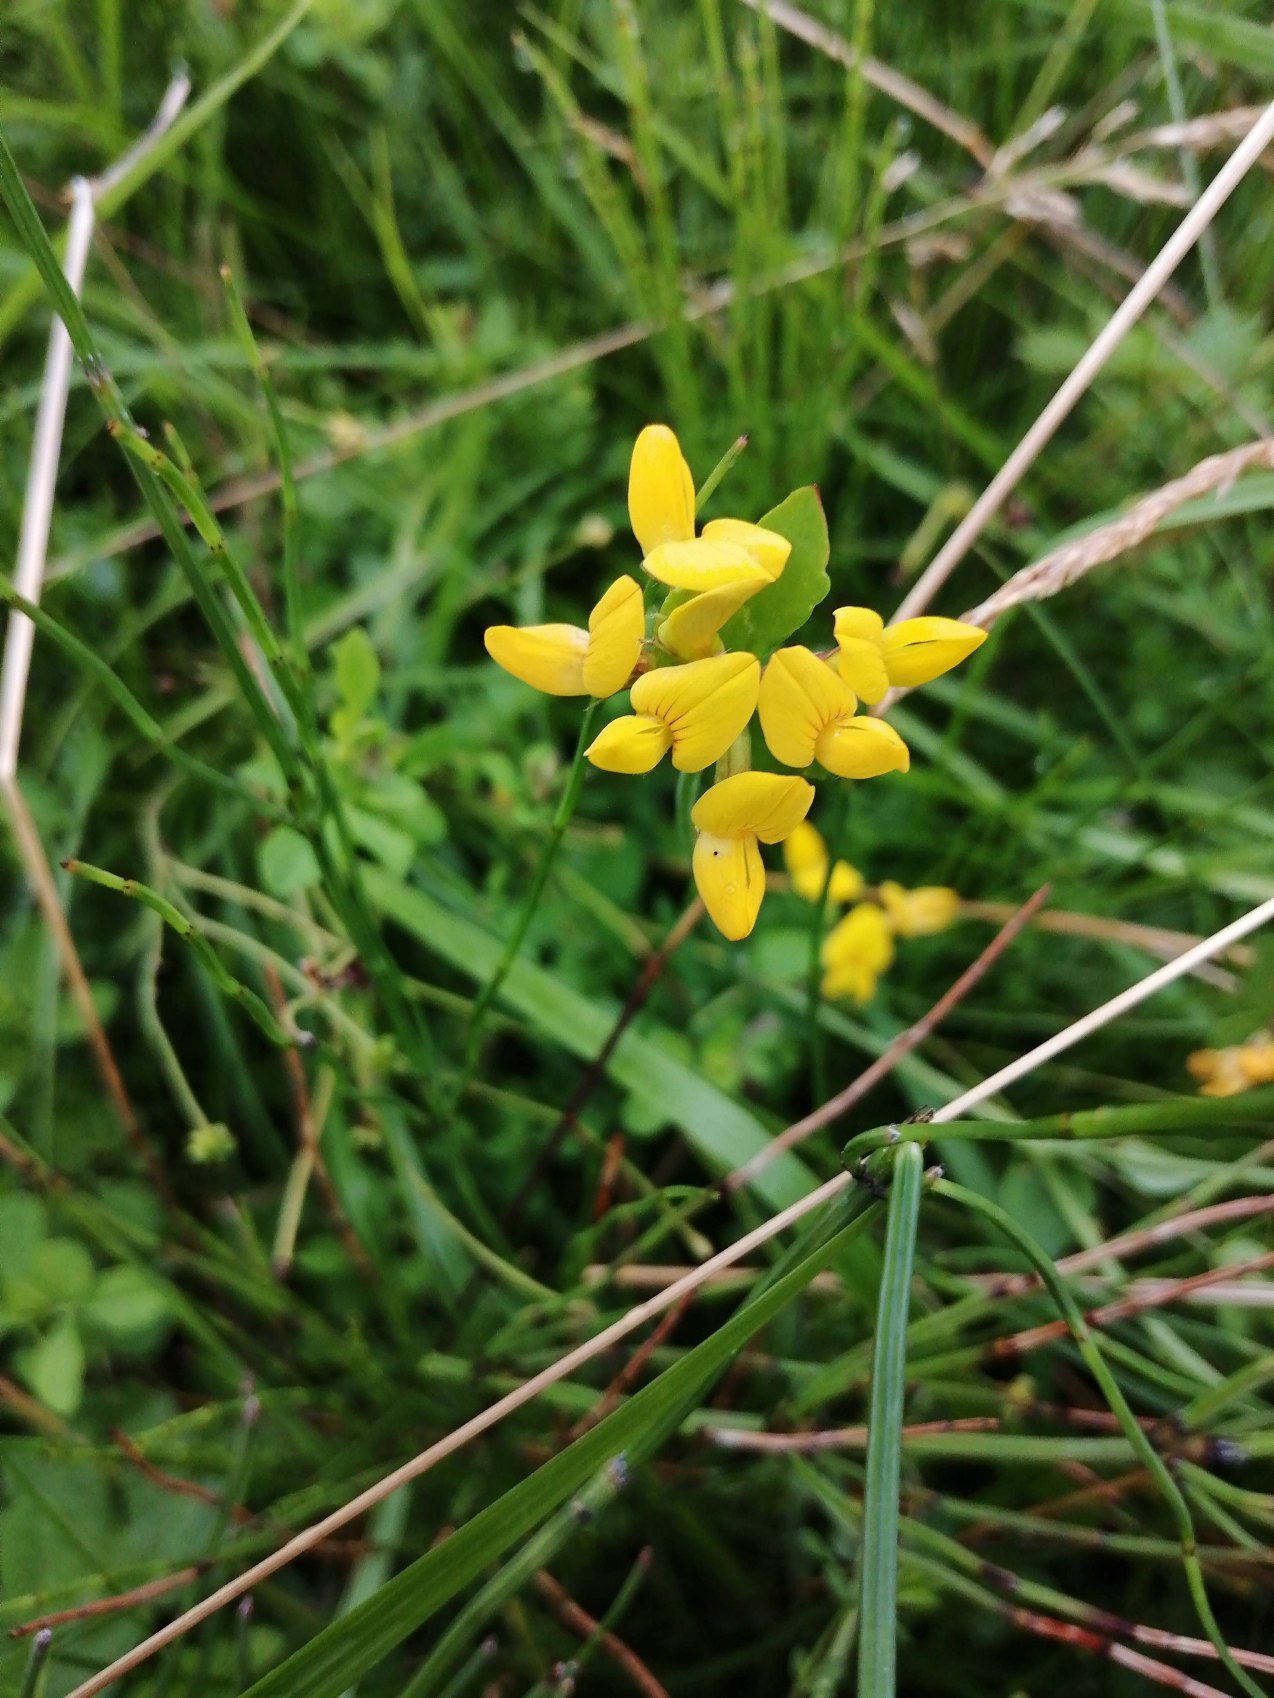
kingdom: Plantae
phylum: Tracheophyta
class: Magnoliopsida
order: Fabales
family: Fabaceae
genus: Lotus
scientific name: Lotus
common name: Kællingetandslægten
